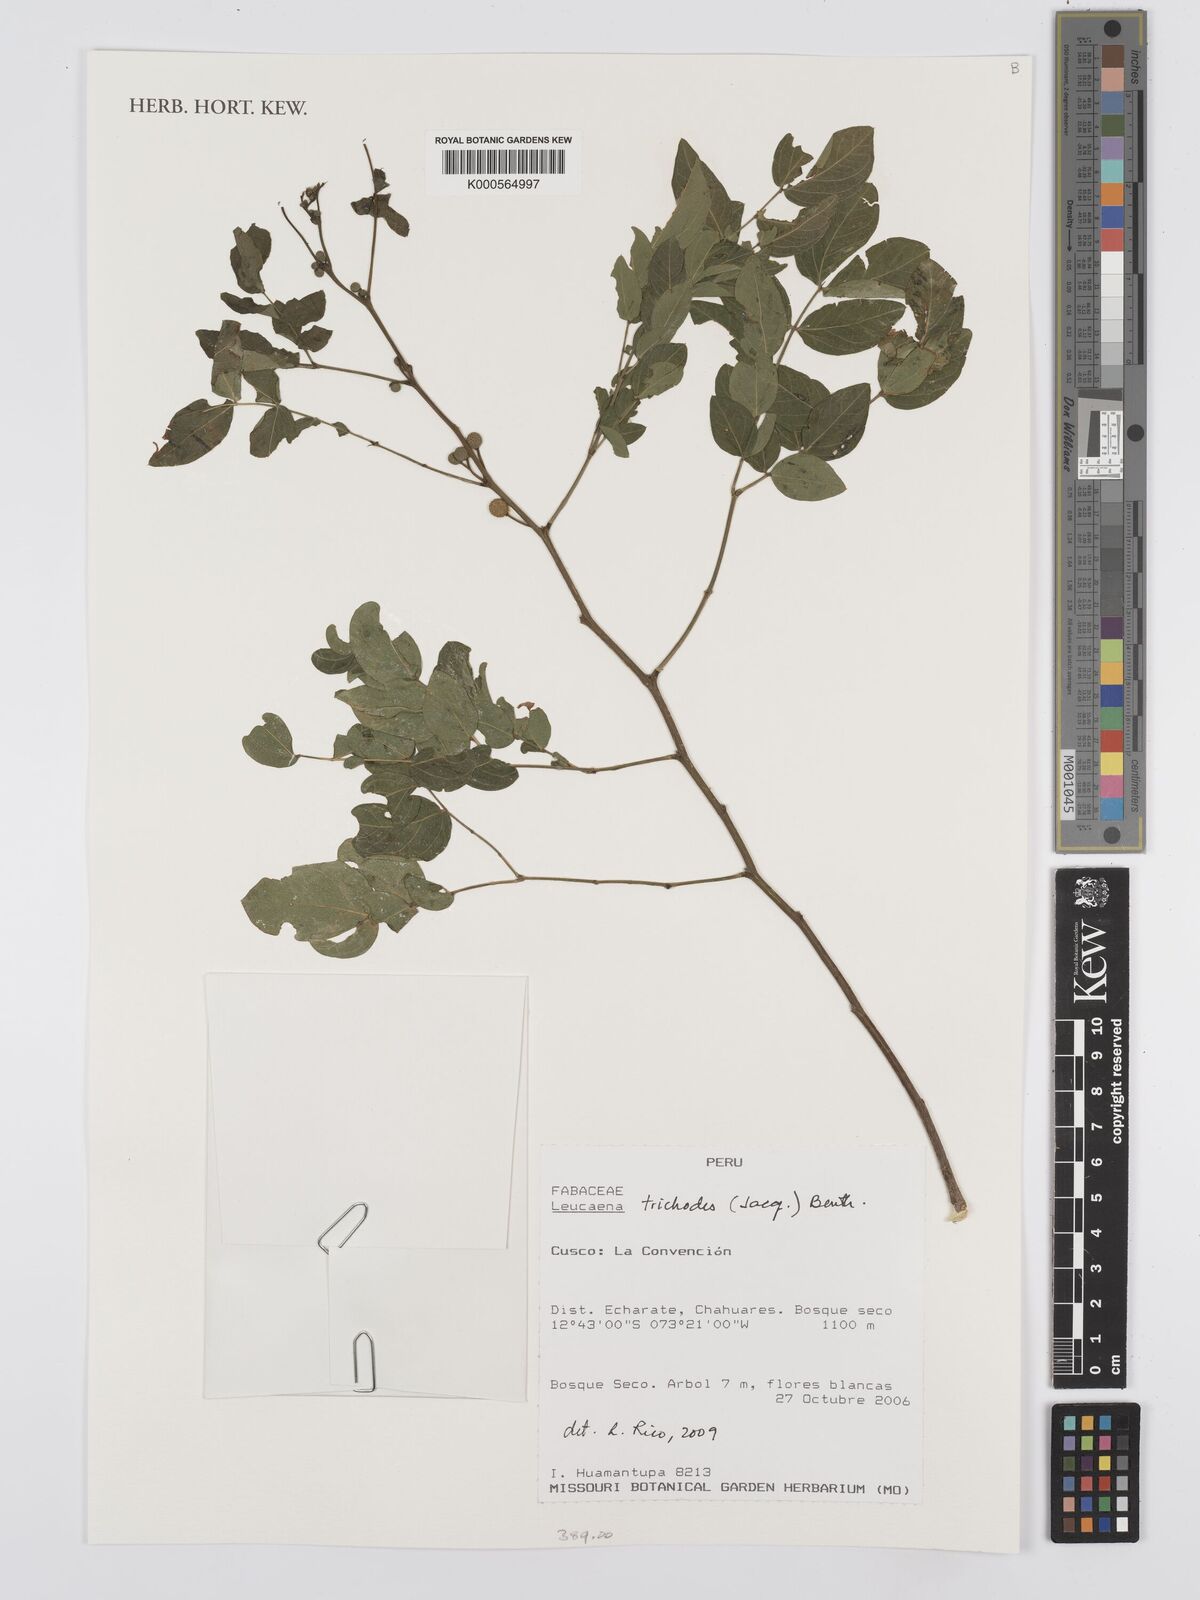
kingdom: Plantae
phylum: Tracheophyta
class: Magnoliopsida
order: Fabales
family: Fabaceae
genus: Leucaena
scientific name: Leucaena trichodes
